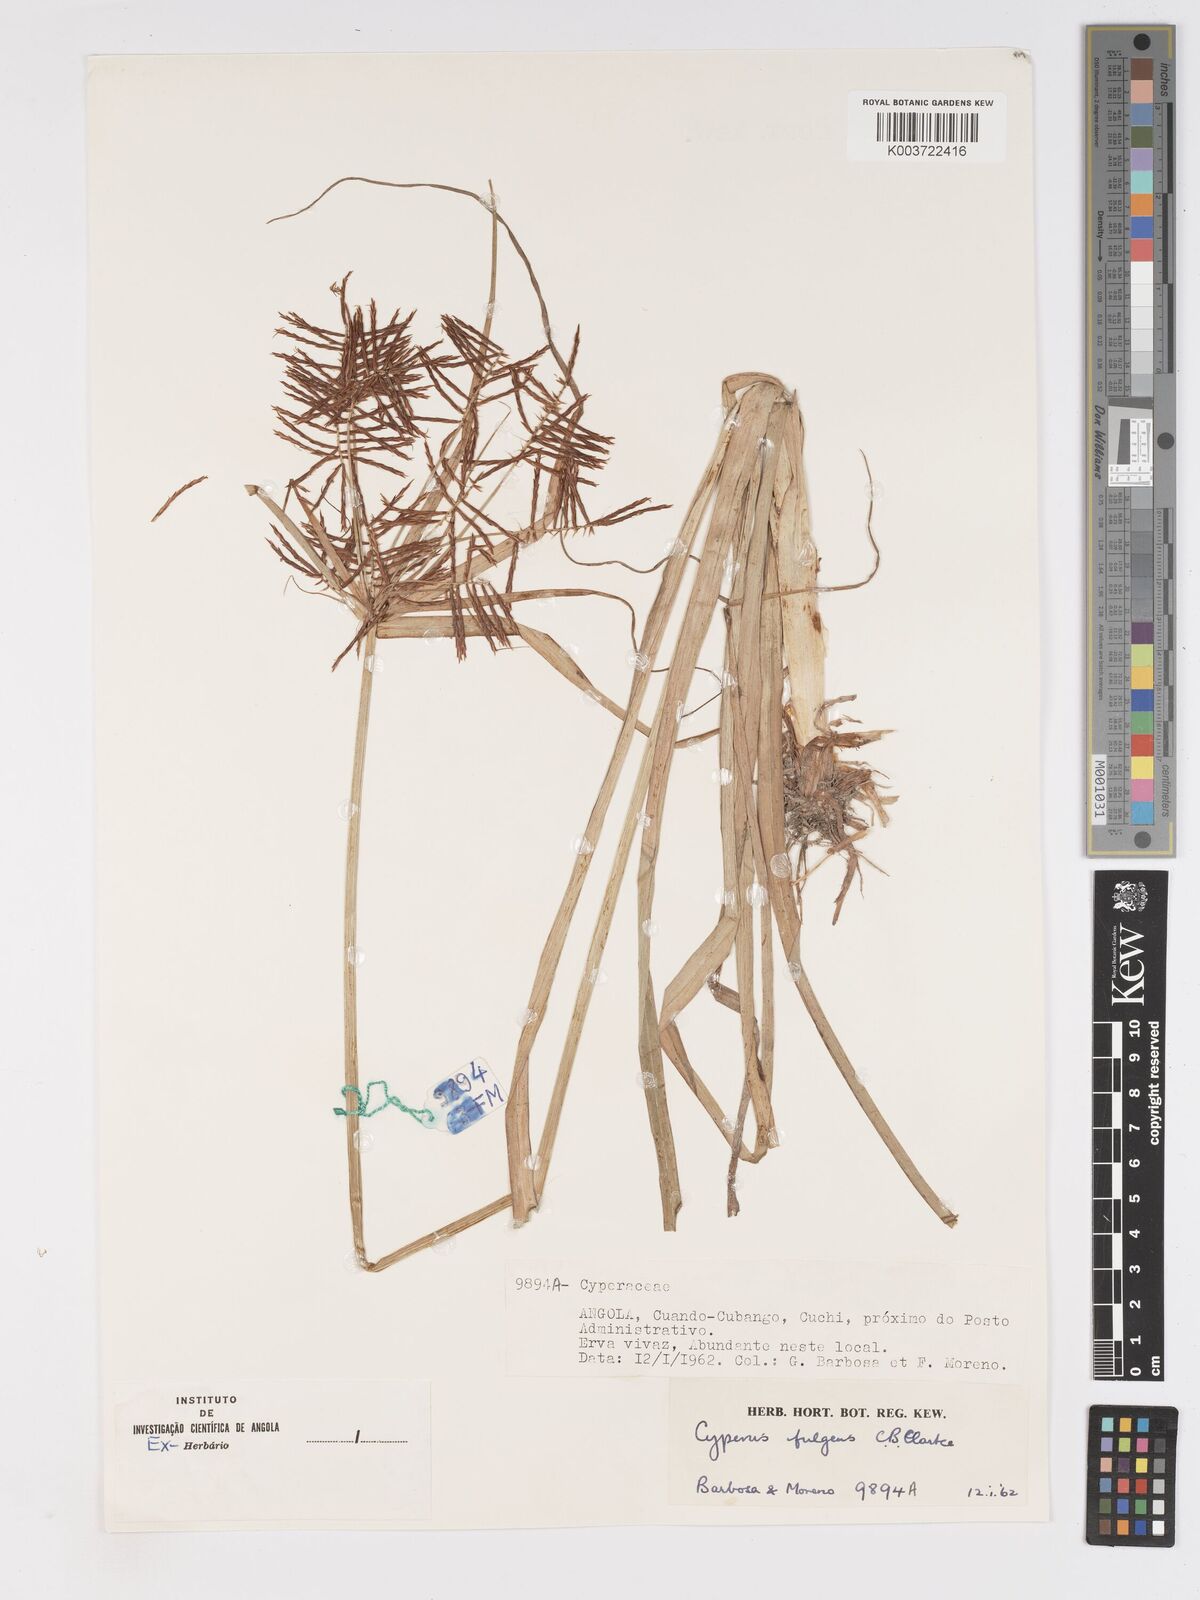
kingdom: Plantae
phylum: Tracheophyta
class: Liliopsida
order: Poales
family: Cyperaceae
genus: Cyperus
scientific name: Cyperus callistus
